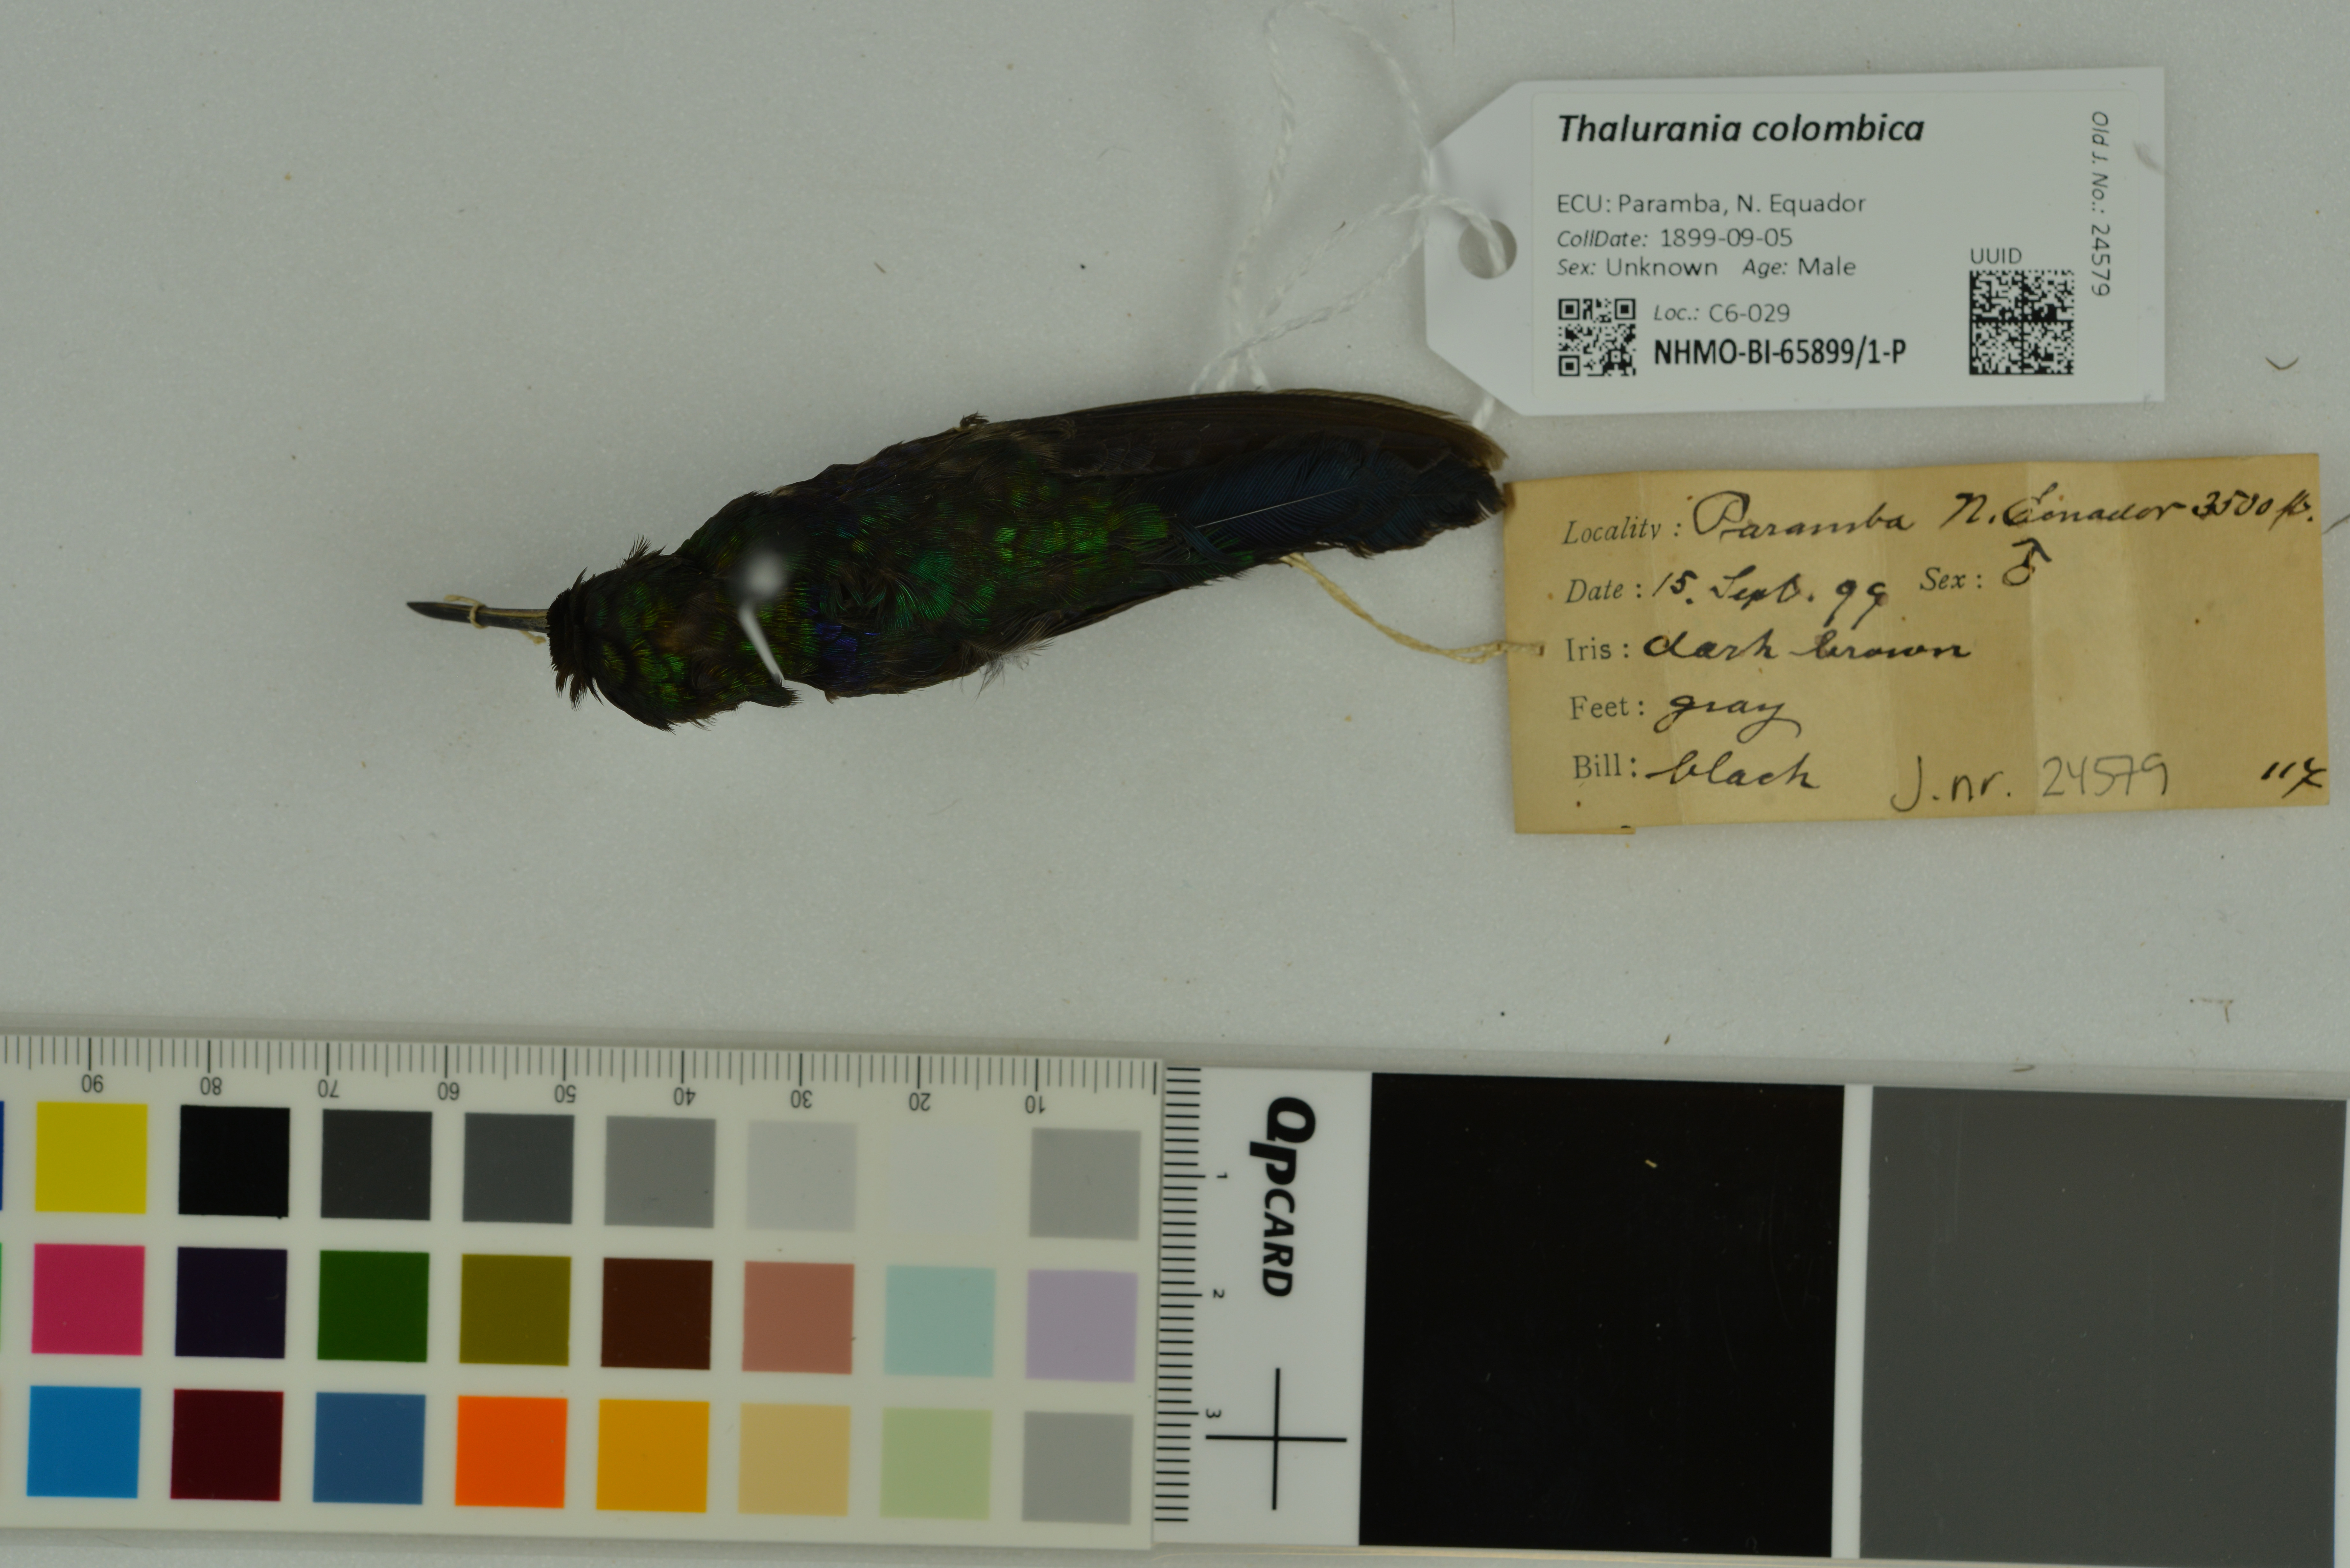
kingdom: Animalia
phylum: Chordata
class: Aves
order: Apodiformes
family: Trochilidae
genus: Thalurania
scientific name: Thalurania colombica
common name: Crowned woodnymph
